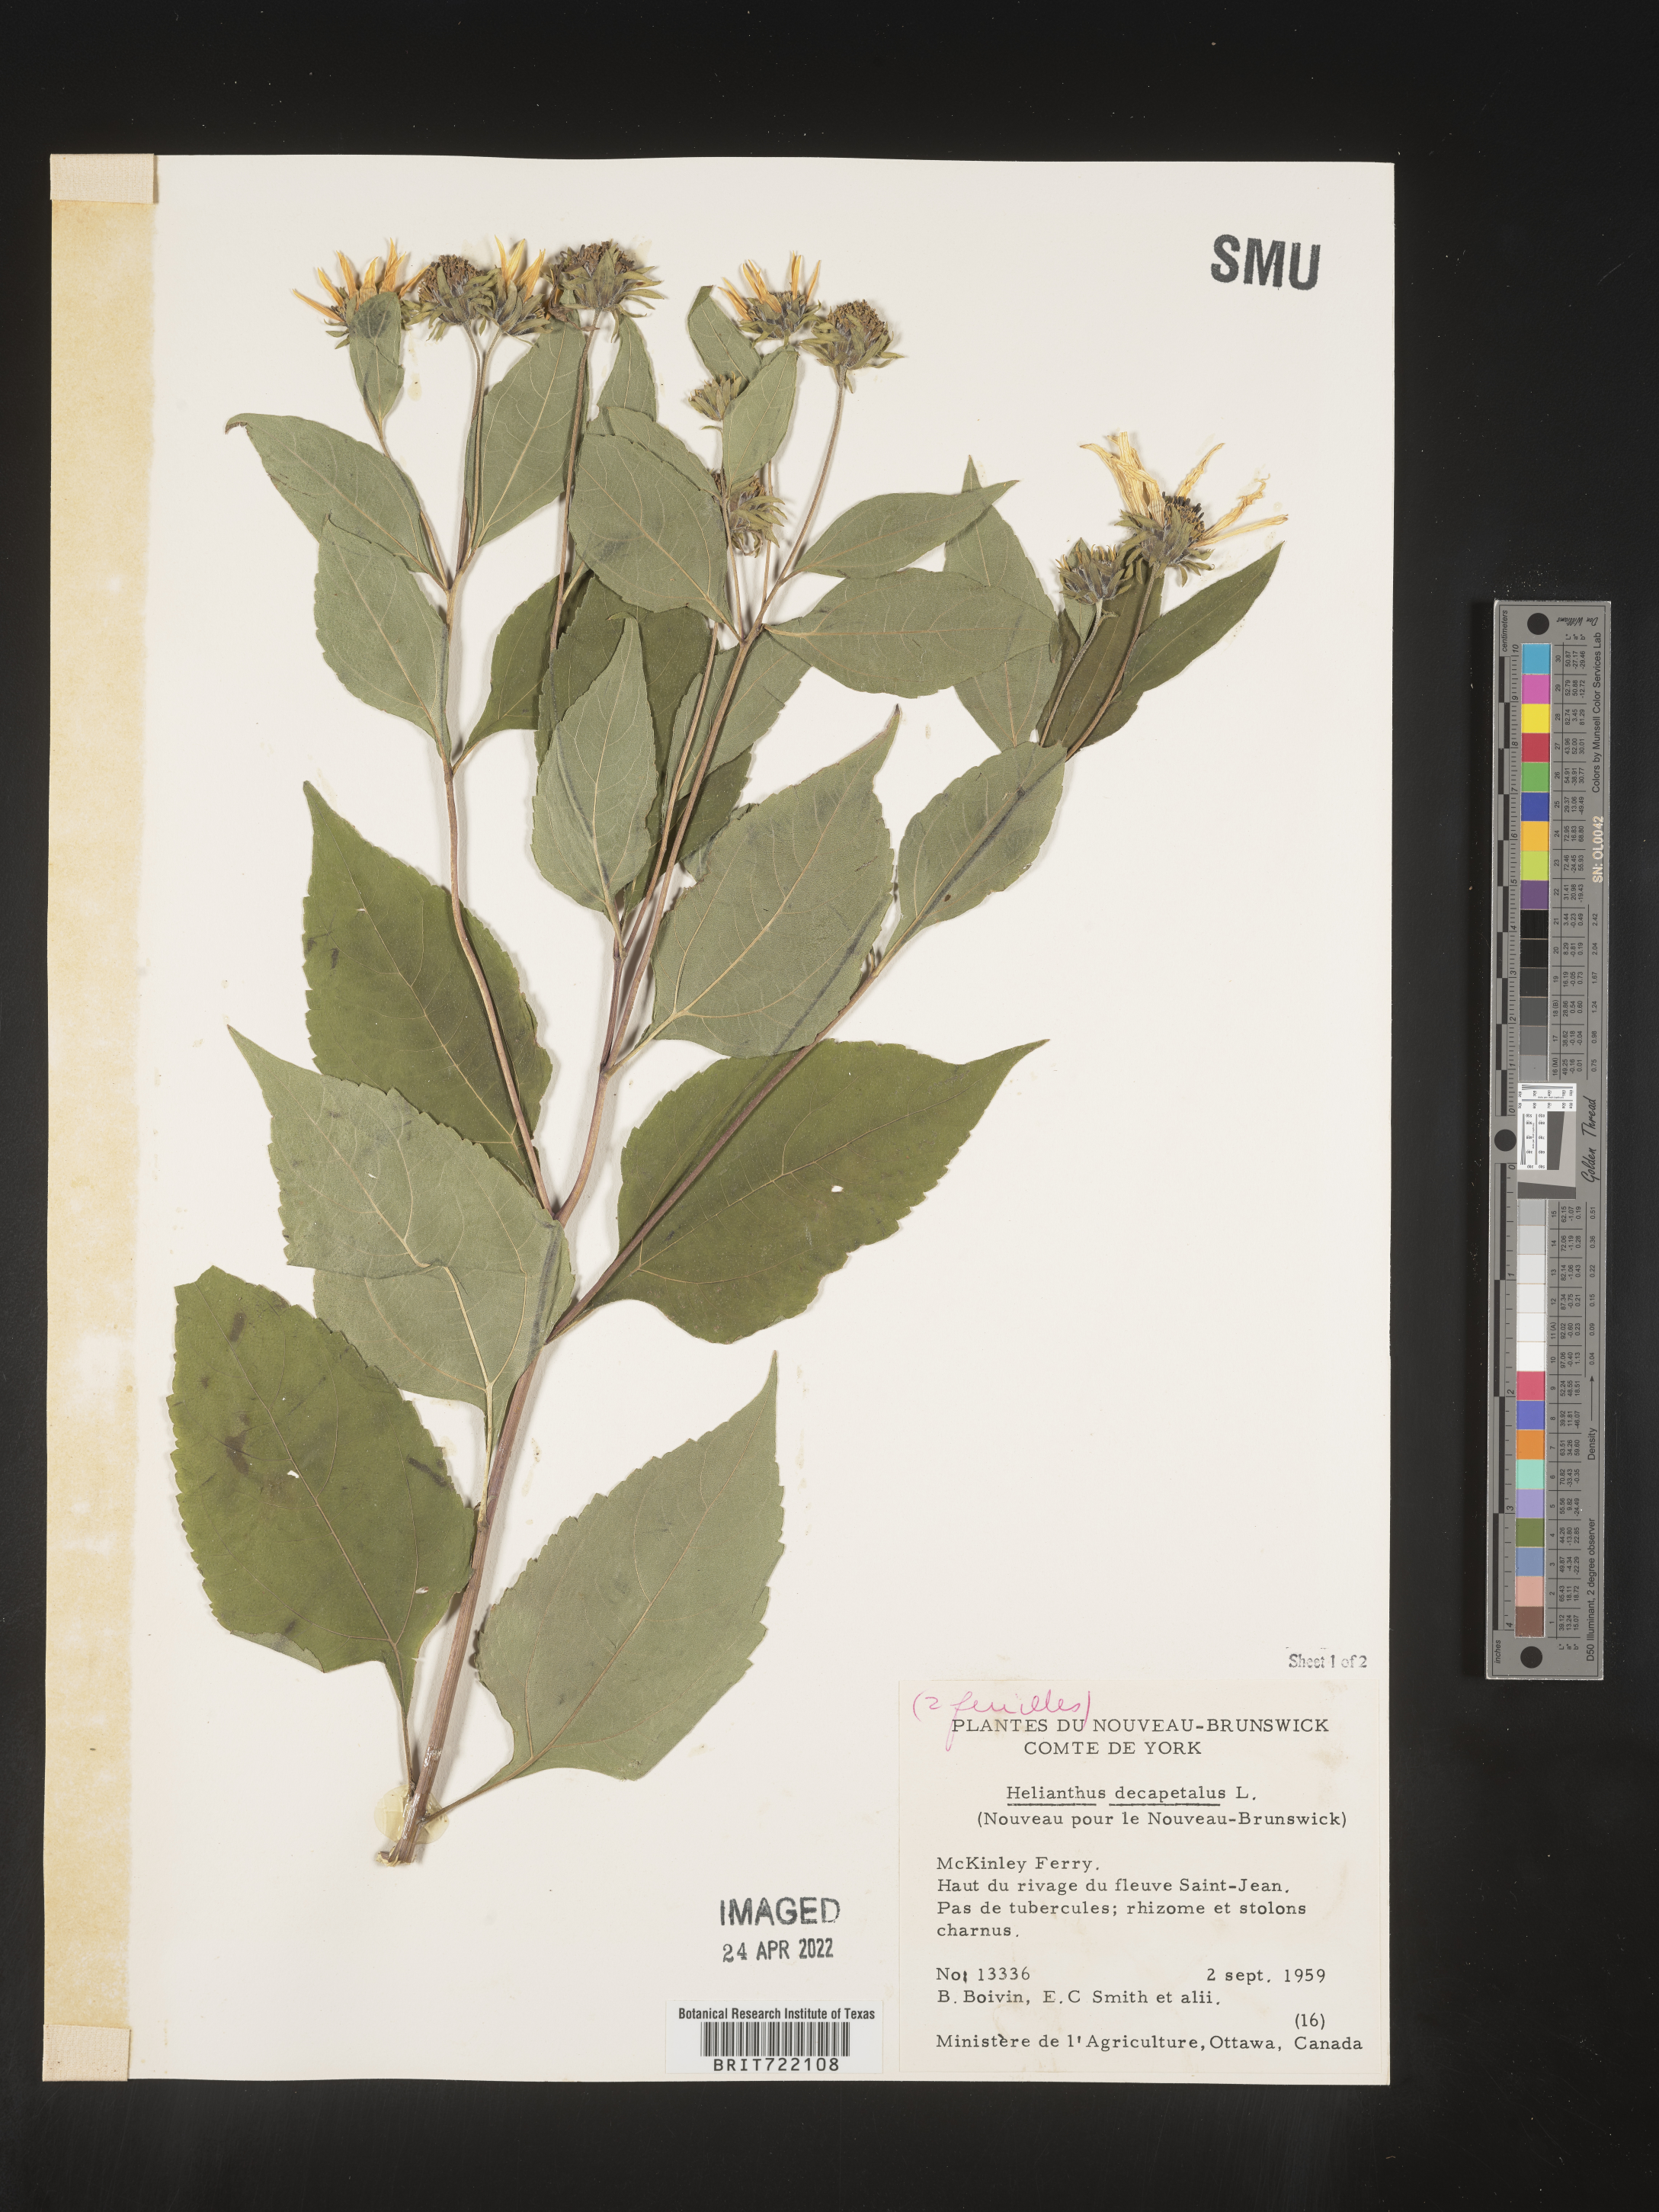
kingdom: Plantae
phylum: Tracheophyta
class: Magnoliopsida
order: Asterales
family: Asteraceae
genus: Helianthus
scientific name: Helianthus decapetalus
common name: Thin-leaved sunflower
